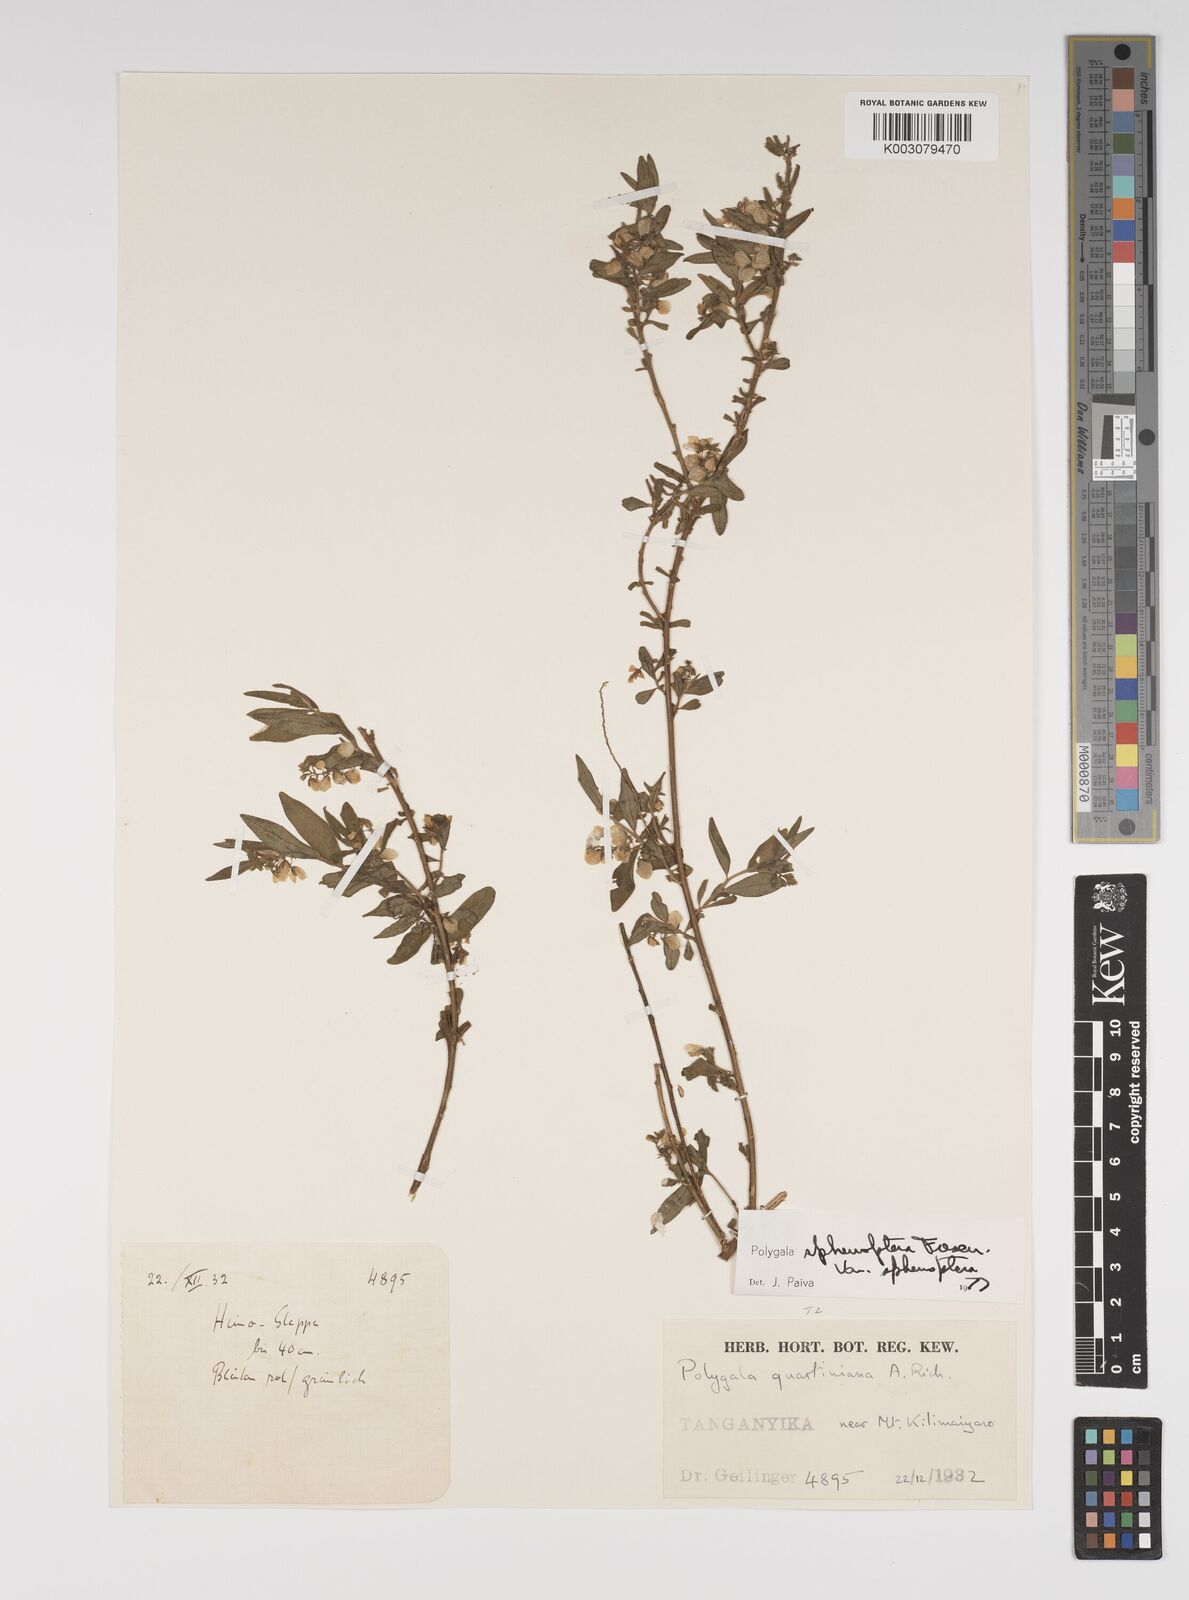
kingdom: Plantae
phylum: Tracheophyta
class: Magnoliopsida
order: Fabales
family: Polygalaceae
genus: Polygala
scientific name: Polygala sphenoptera
